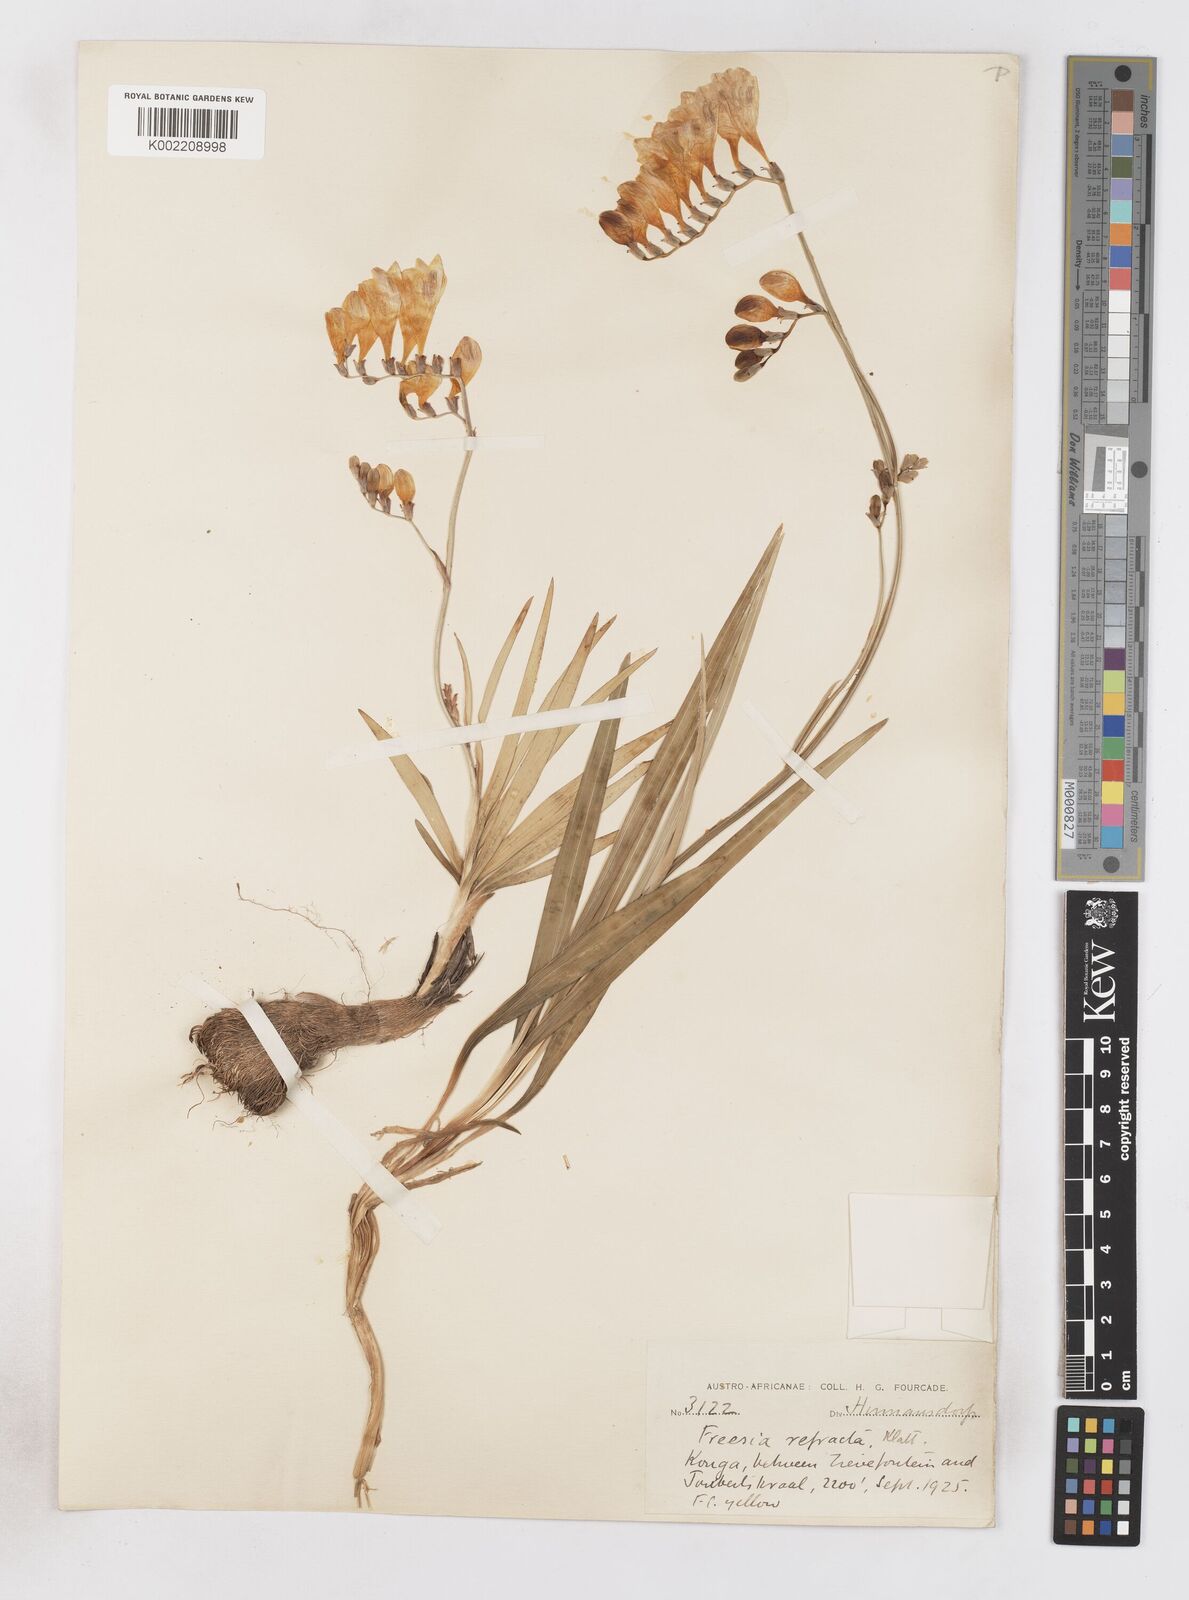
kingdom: Plantae
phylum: Tracheophyta
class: Liliopsida
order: Asparagales
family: Iridaceae
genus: Freesia
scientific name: Freesia corymbosa
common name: Common freesia
